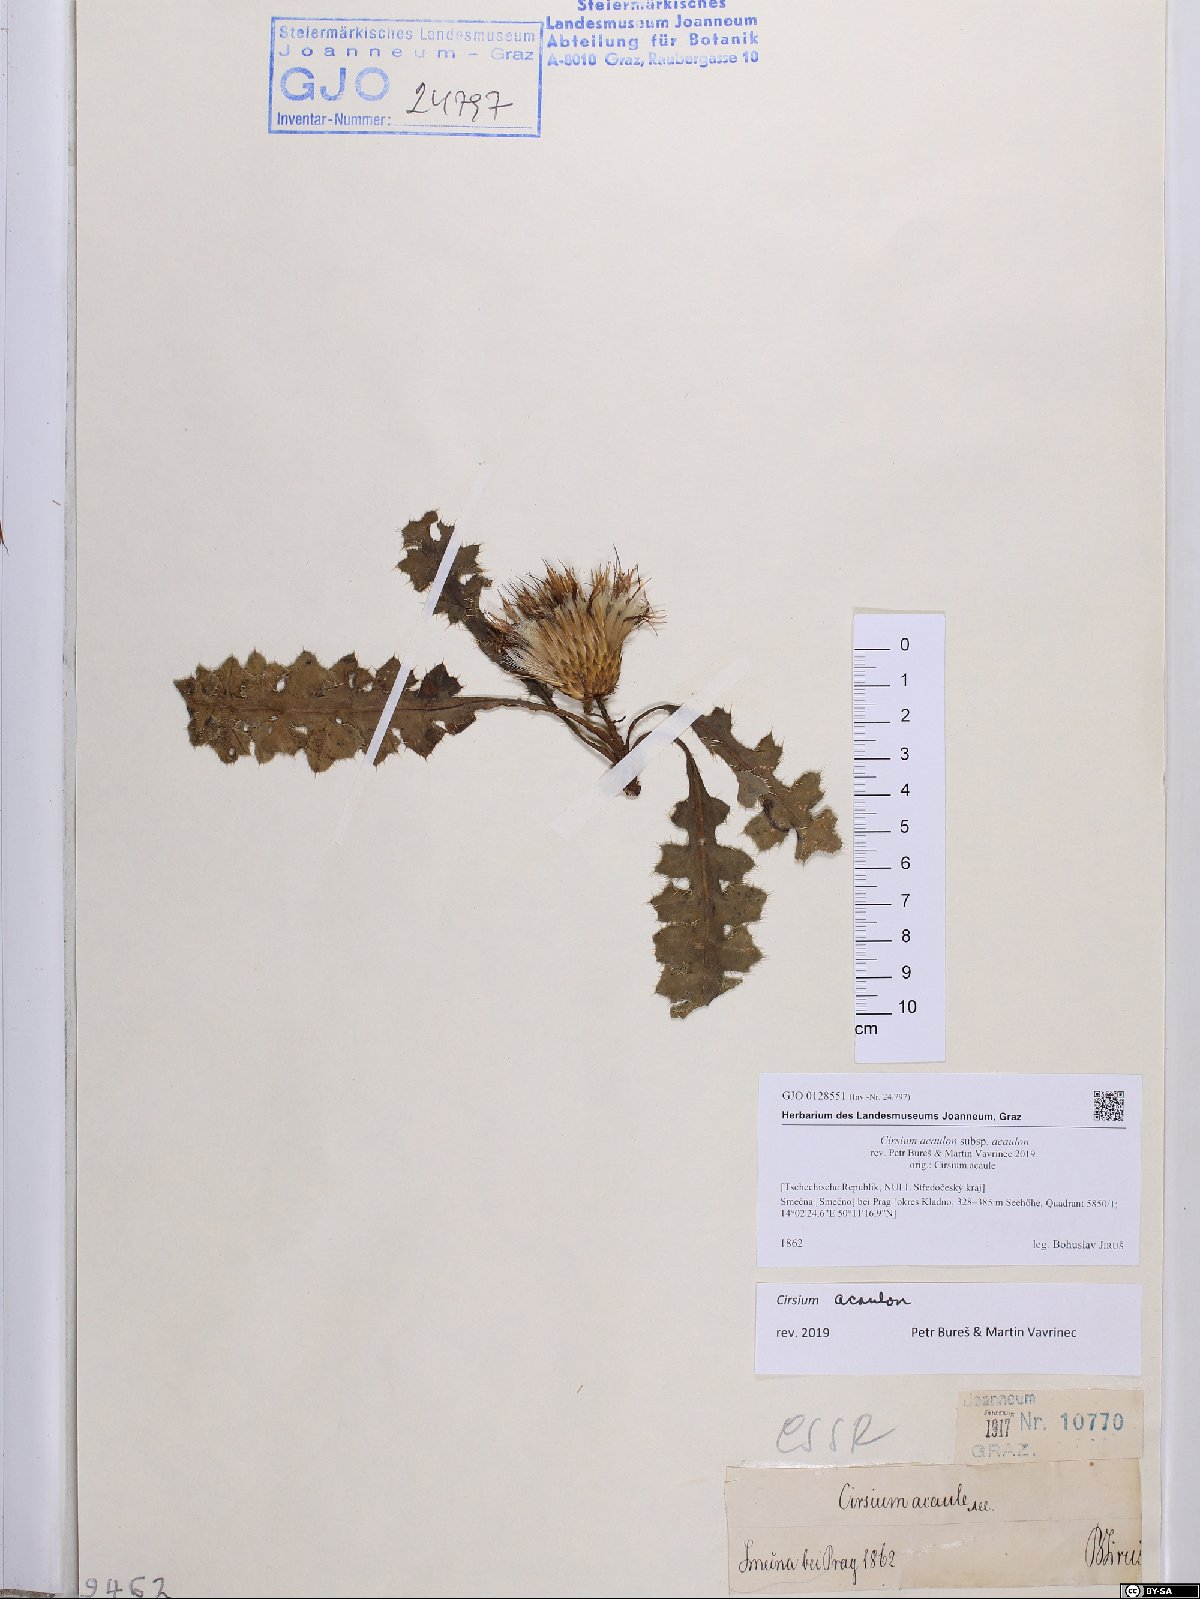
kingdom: Plantae
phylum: Tracheophyta
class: Magnoliopsida
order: Asterales
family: Asteraceae
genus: Cirsium
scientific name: Cirsium acaulon
